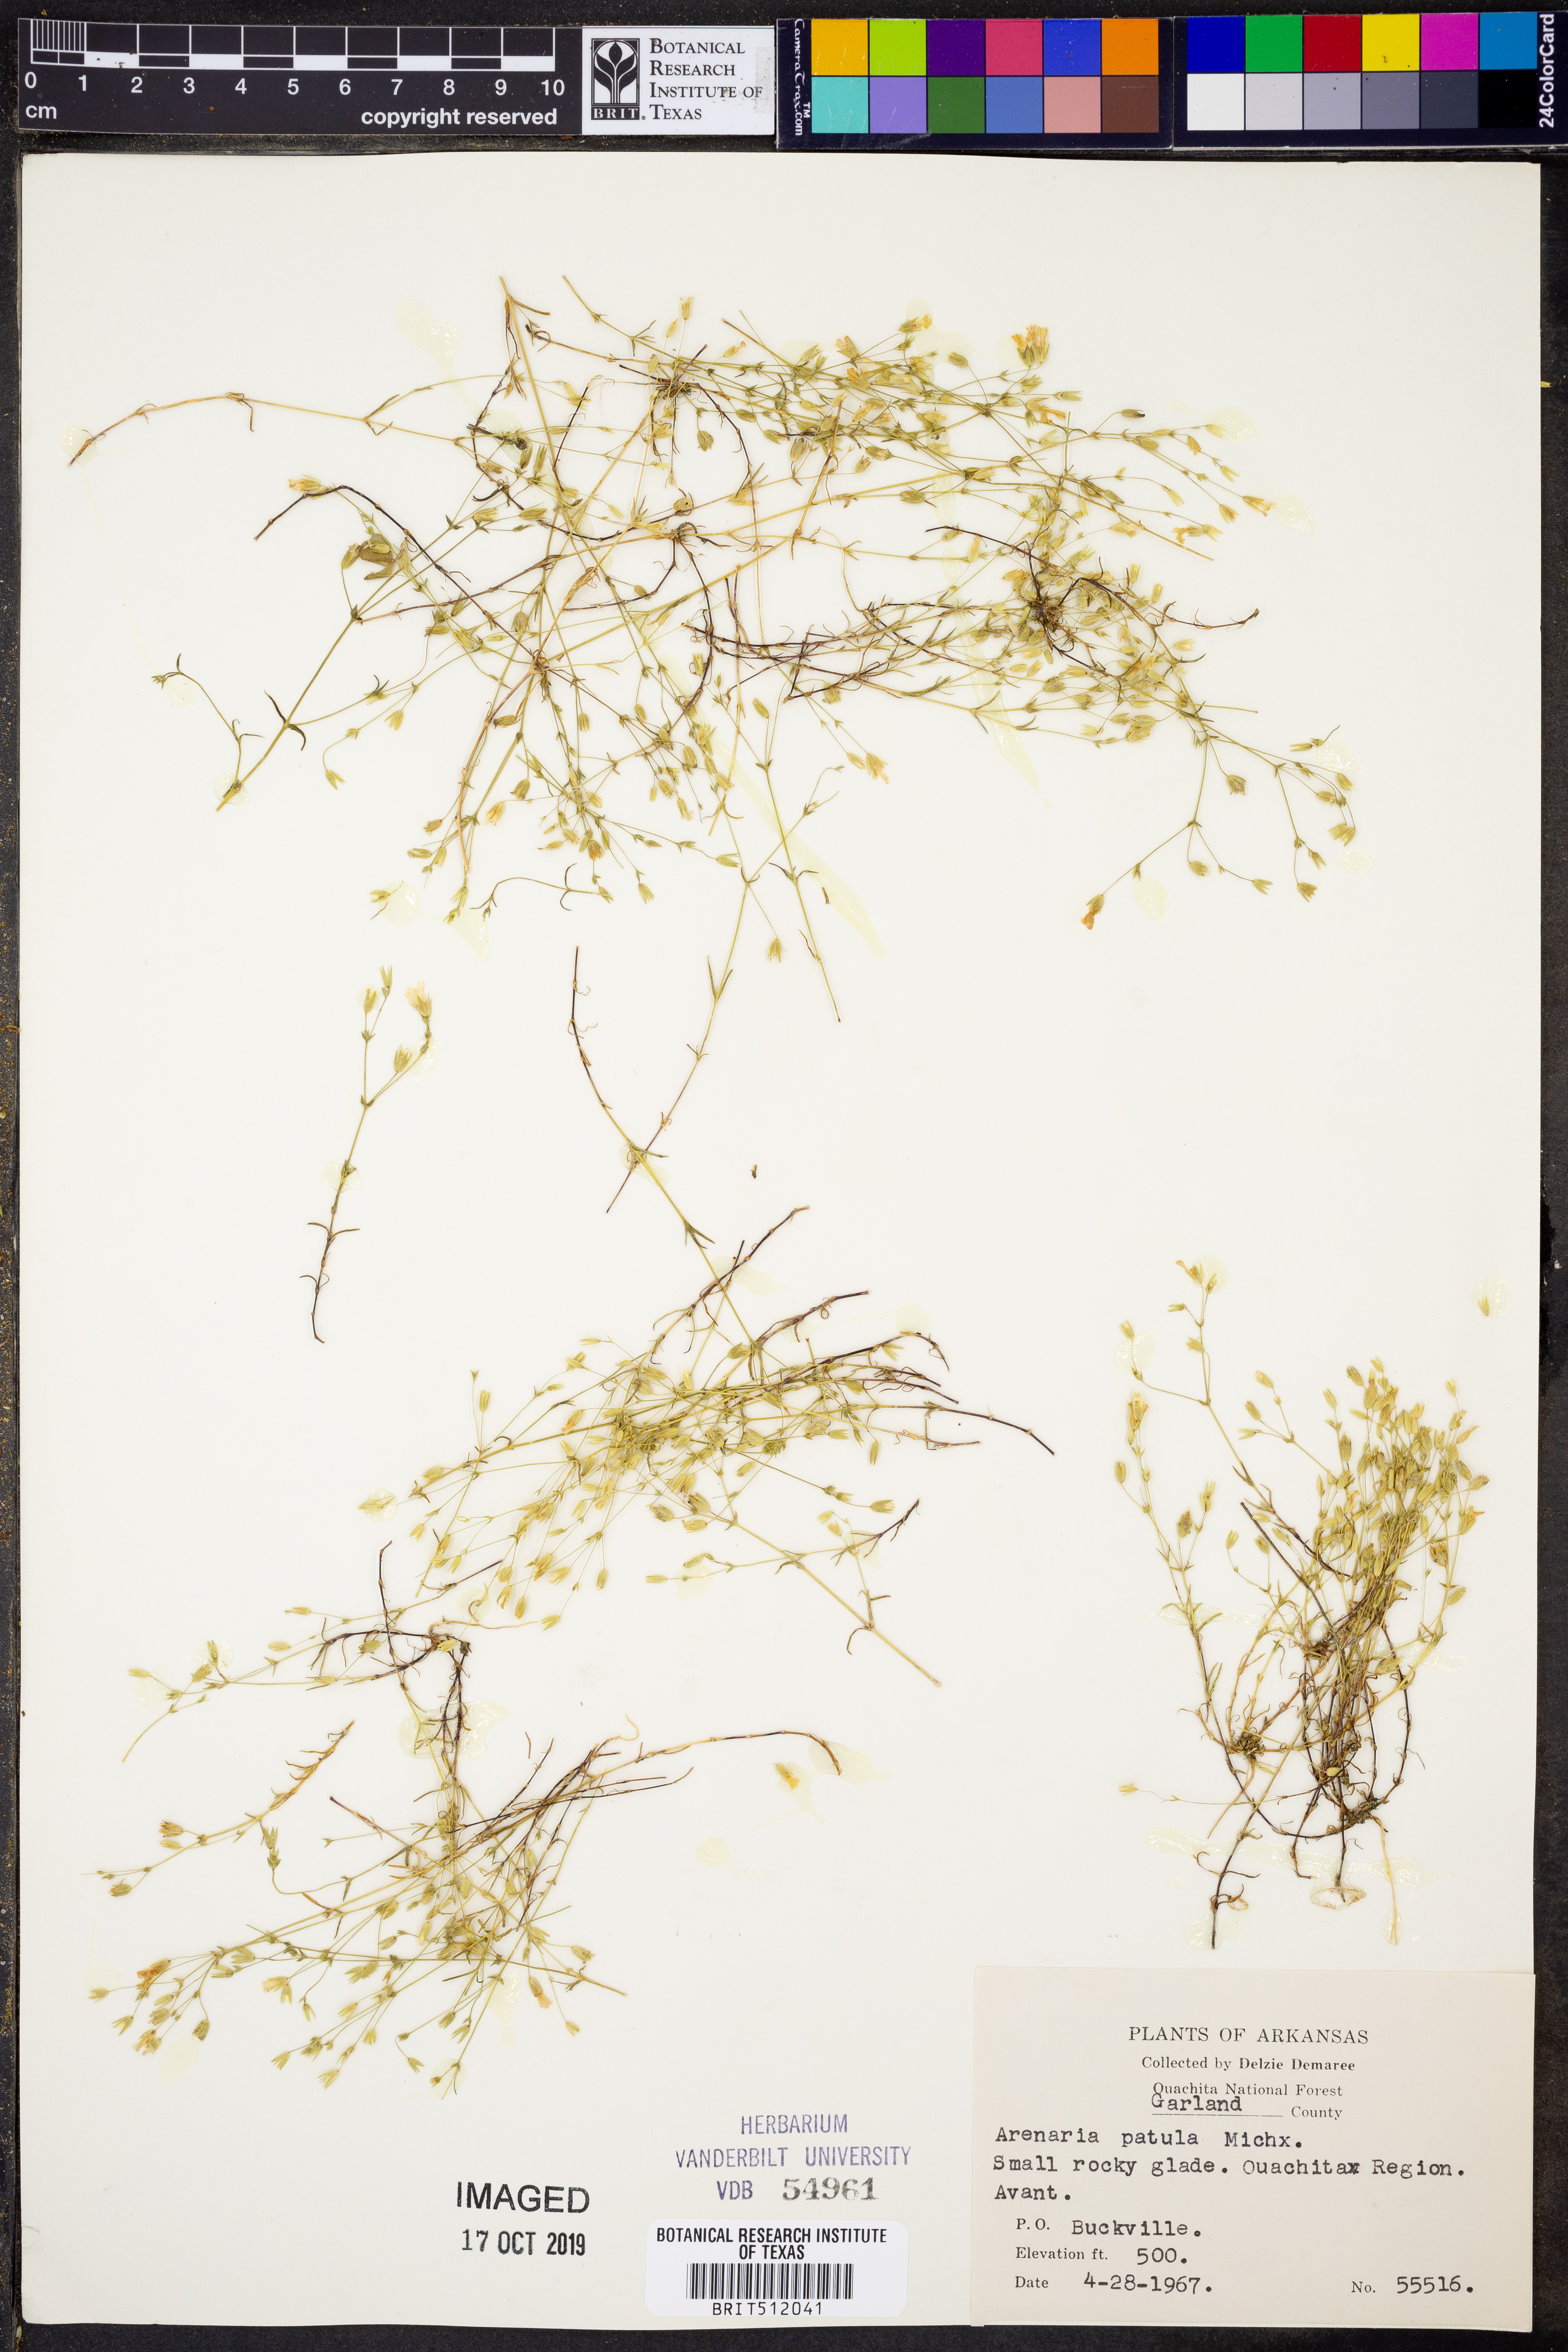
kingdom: Plantae
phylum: Tracheophyta
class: Magnoliopsida
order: Caryophyllales
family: Caryophyllaceae
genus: Mononeuria
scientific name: Mononeuria patula
